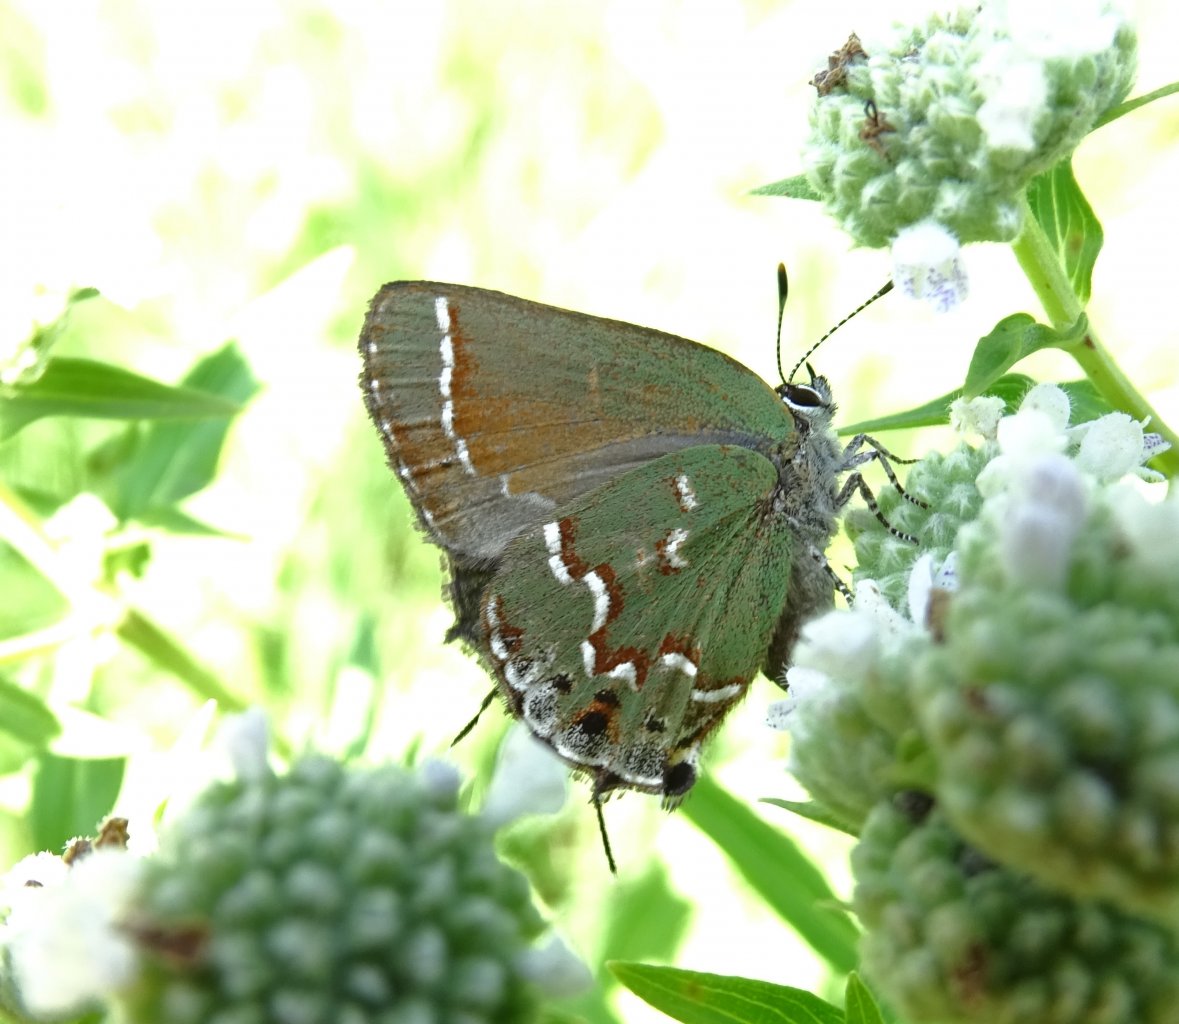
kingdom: Animalia
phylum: Arthropoda
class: Insecta
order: Lepidoptera
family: Lycaenidae
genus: Mitoura
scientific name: Mitoura gryneus
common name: Juniper Hairstreak
